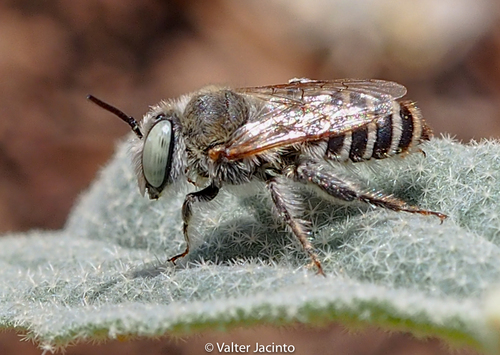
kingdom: Animalia
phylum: Arthropoda
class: Insecta
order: Hymenoptera
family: Megachilidae
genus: Lithurgus
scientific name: Lithurgus tibialis
